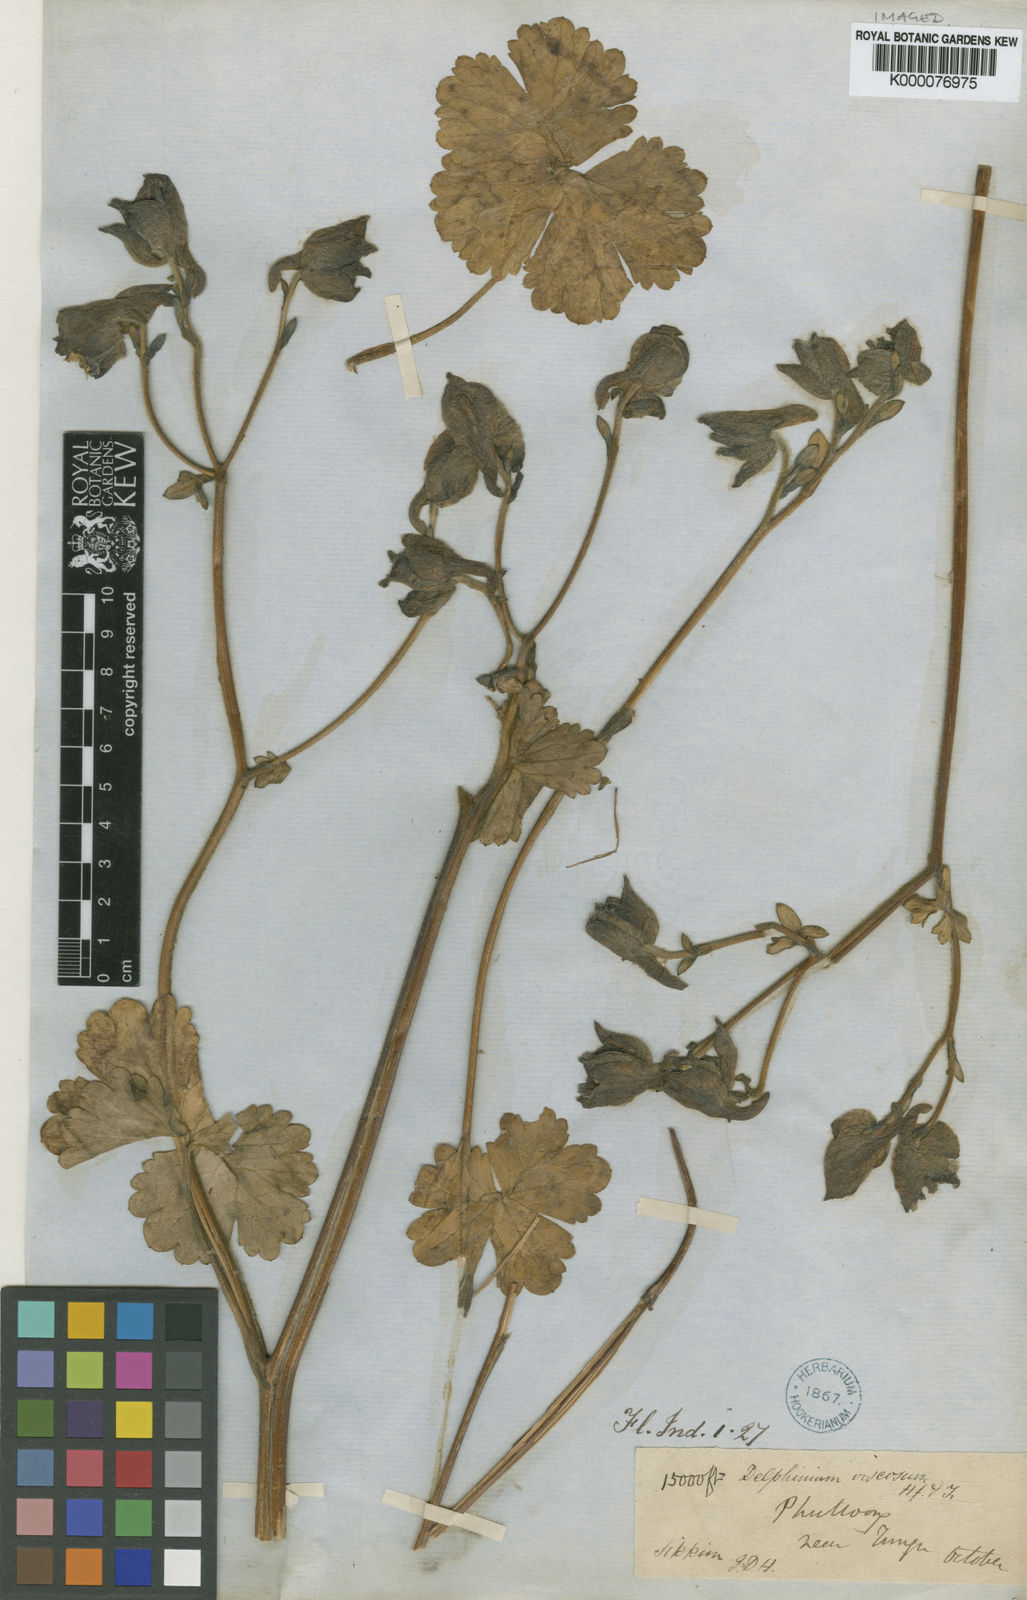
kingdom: Plantae
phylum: Tracheophyta
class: Magnoliopsida
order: Ranunculales
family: Ranunculaceae
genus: Delphinium
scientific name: Delphinium viscosum
